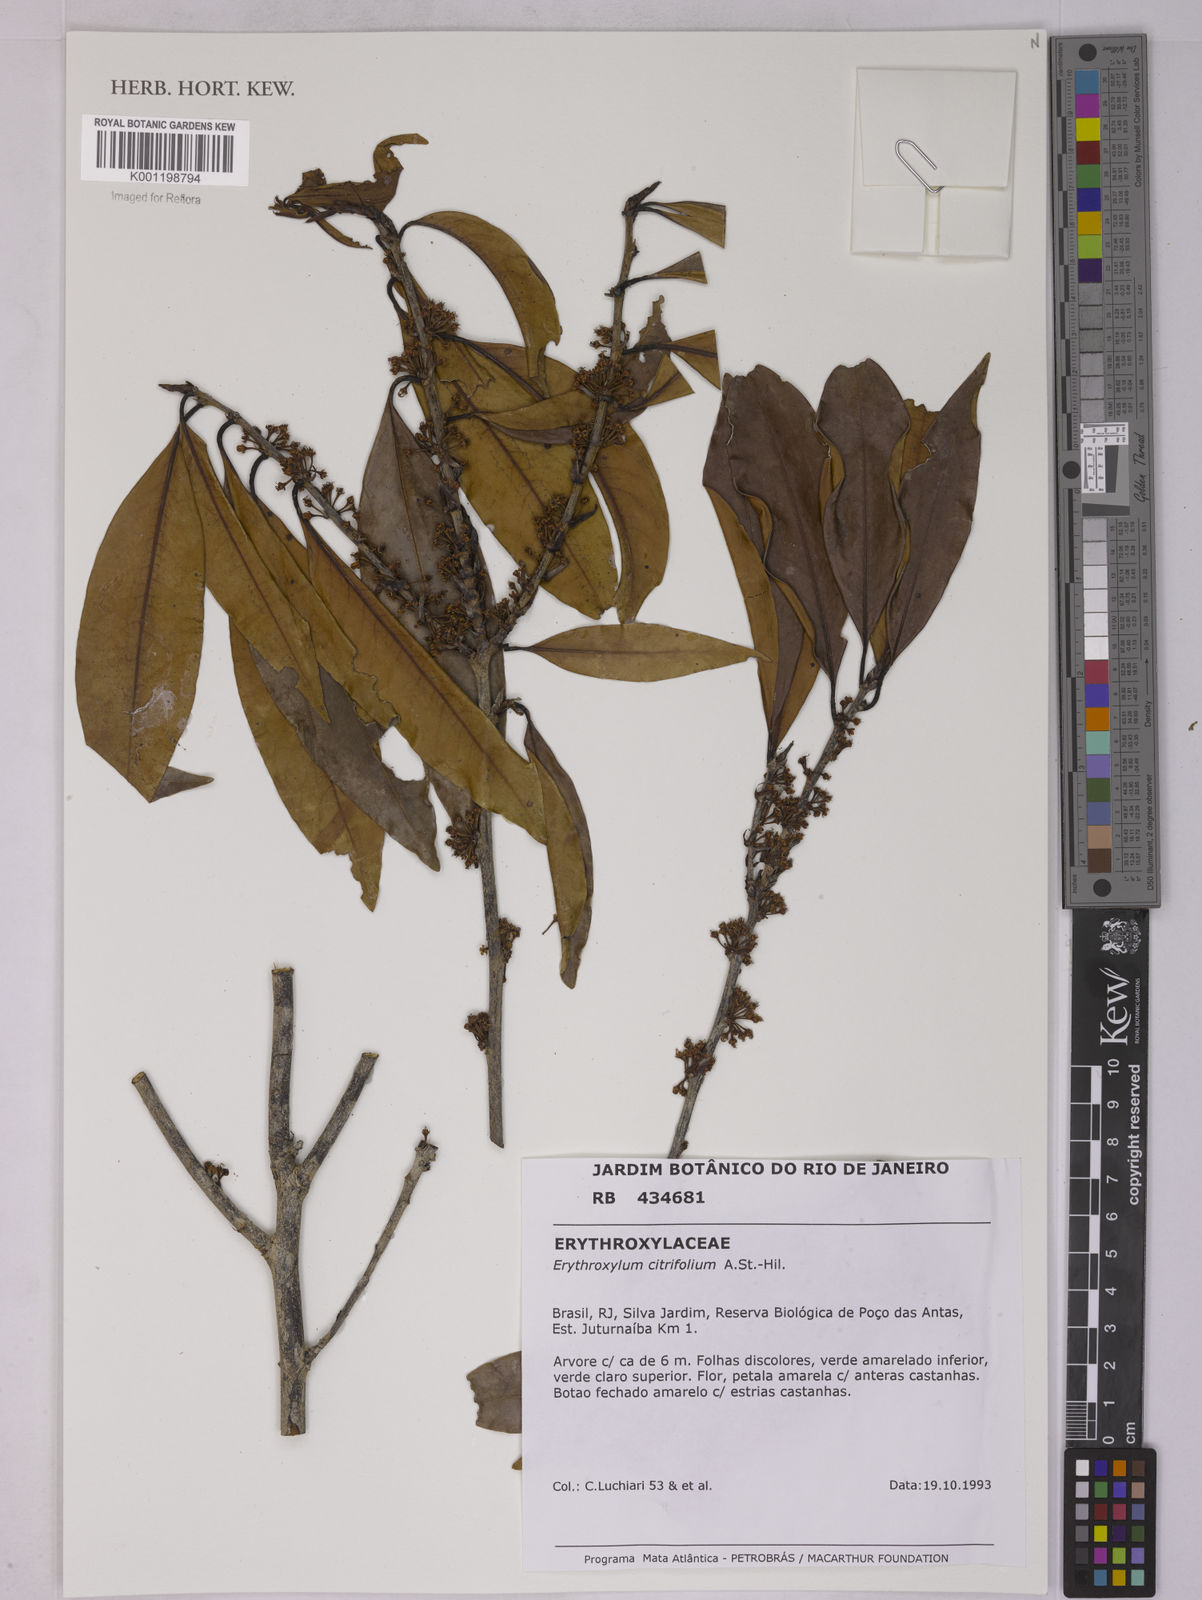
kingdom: Plantae
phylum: Tracheophyta
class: Magnoliopsida
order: Malpighiales
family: Erythroxylaceae
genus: Erythroxylum
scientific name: Erythroxylum citrifolium
